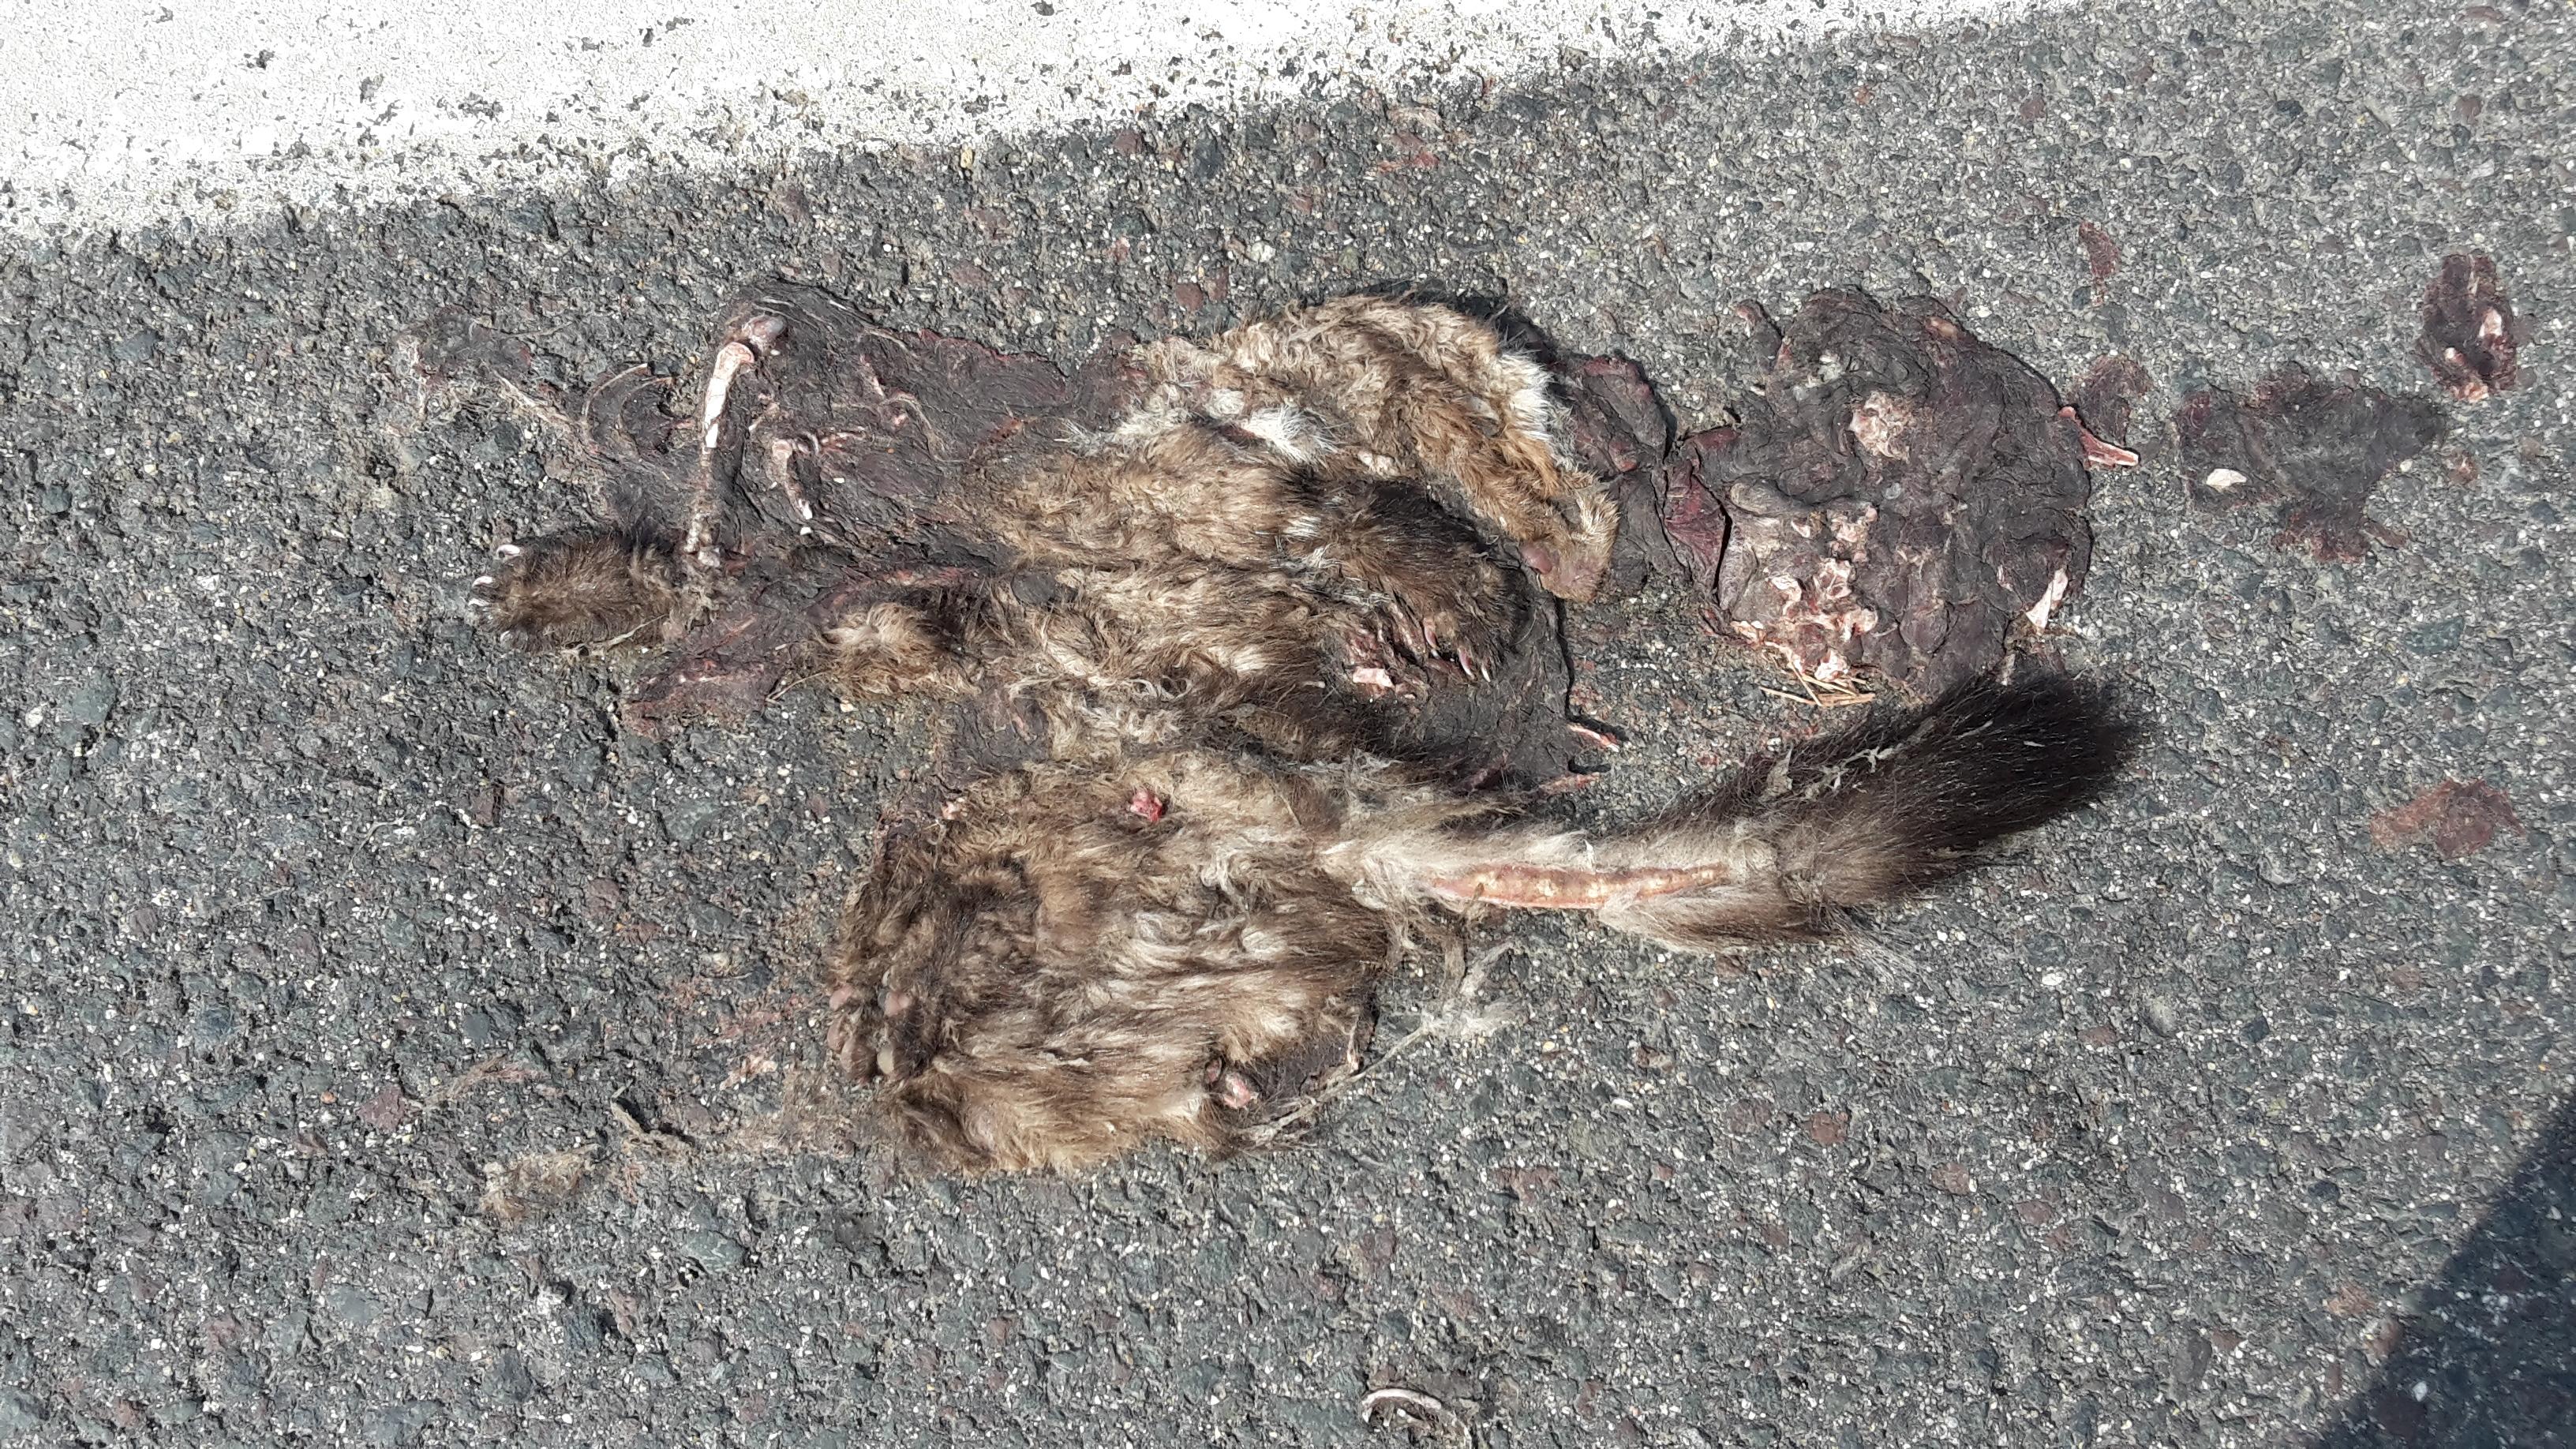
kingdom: Animalia
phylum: Chordata
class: Mammalia
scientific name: Mammalia
